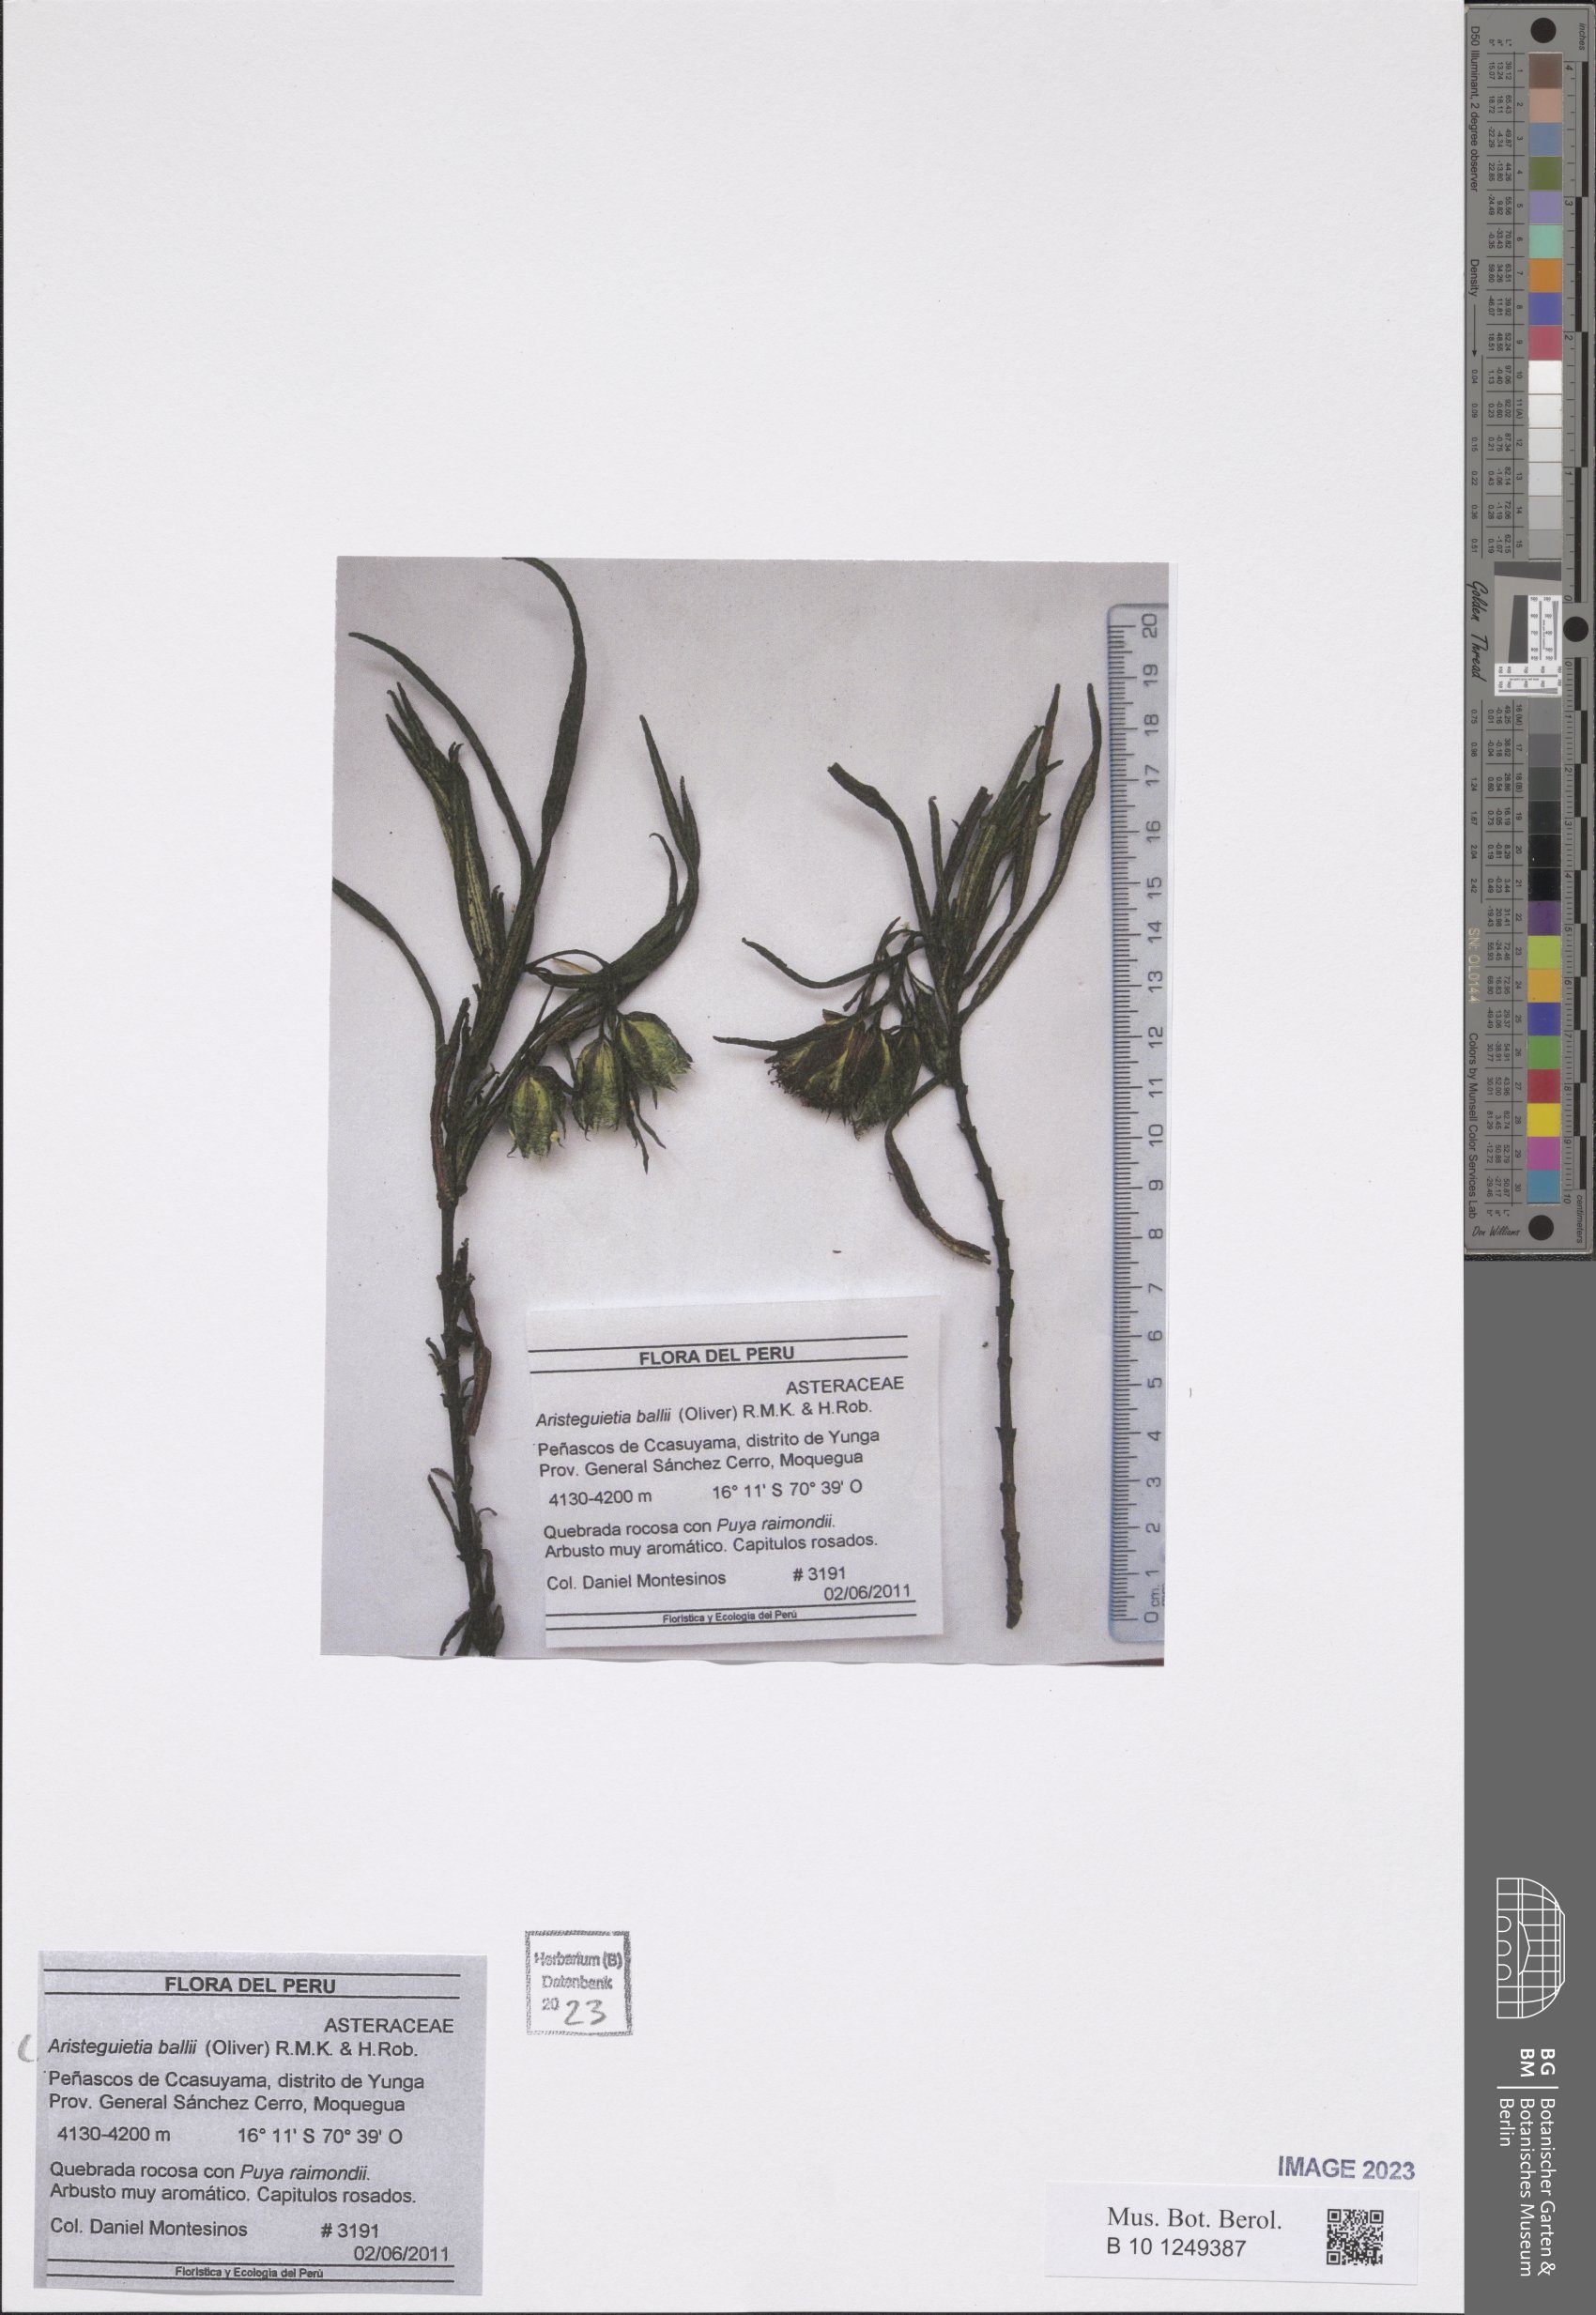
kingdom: Plantae
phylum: Tracheophyta
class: Magnoliopsida
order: Asterales
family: Asteraceae
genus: Aristeguietia
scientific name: Aristeguietia ballii
